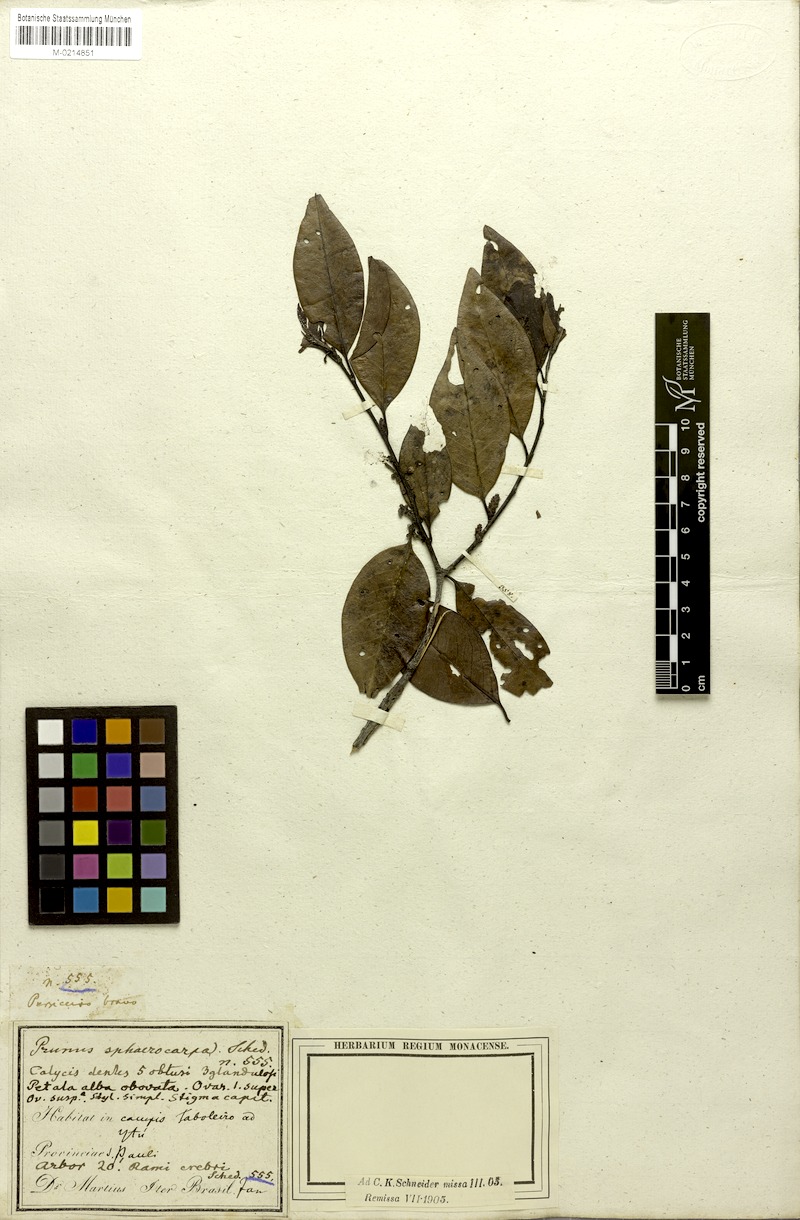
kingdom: Plantae
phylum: Tracheophyta
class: Magnoliopsida
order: Rosales
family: Rosaceae
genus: Prunus
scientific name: Prunus brasiliensis
